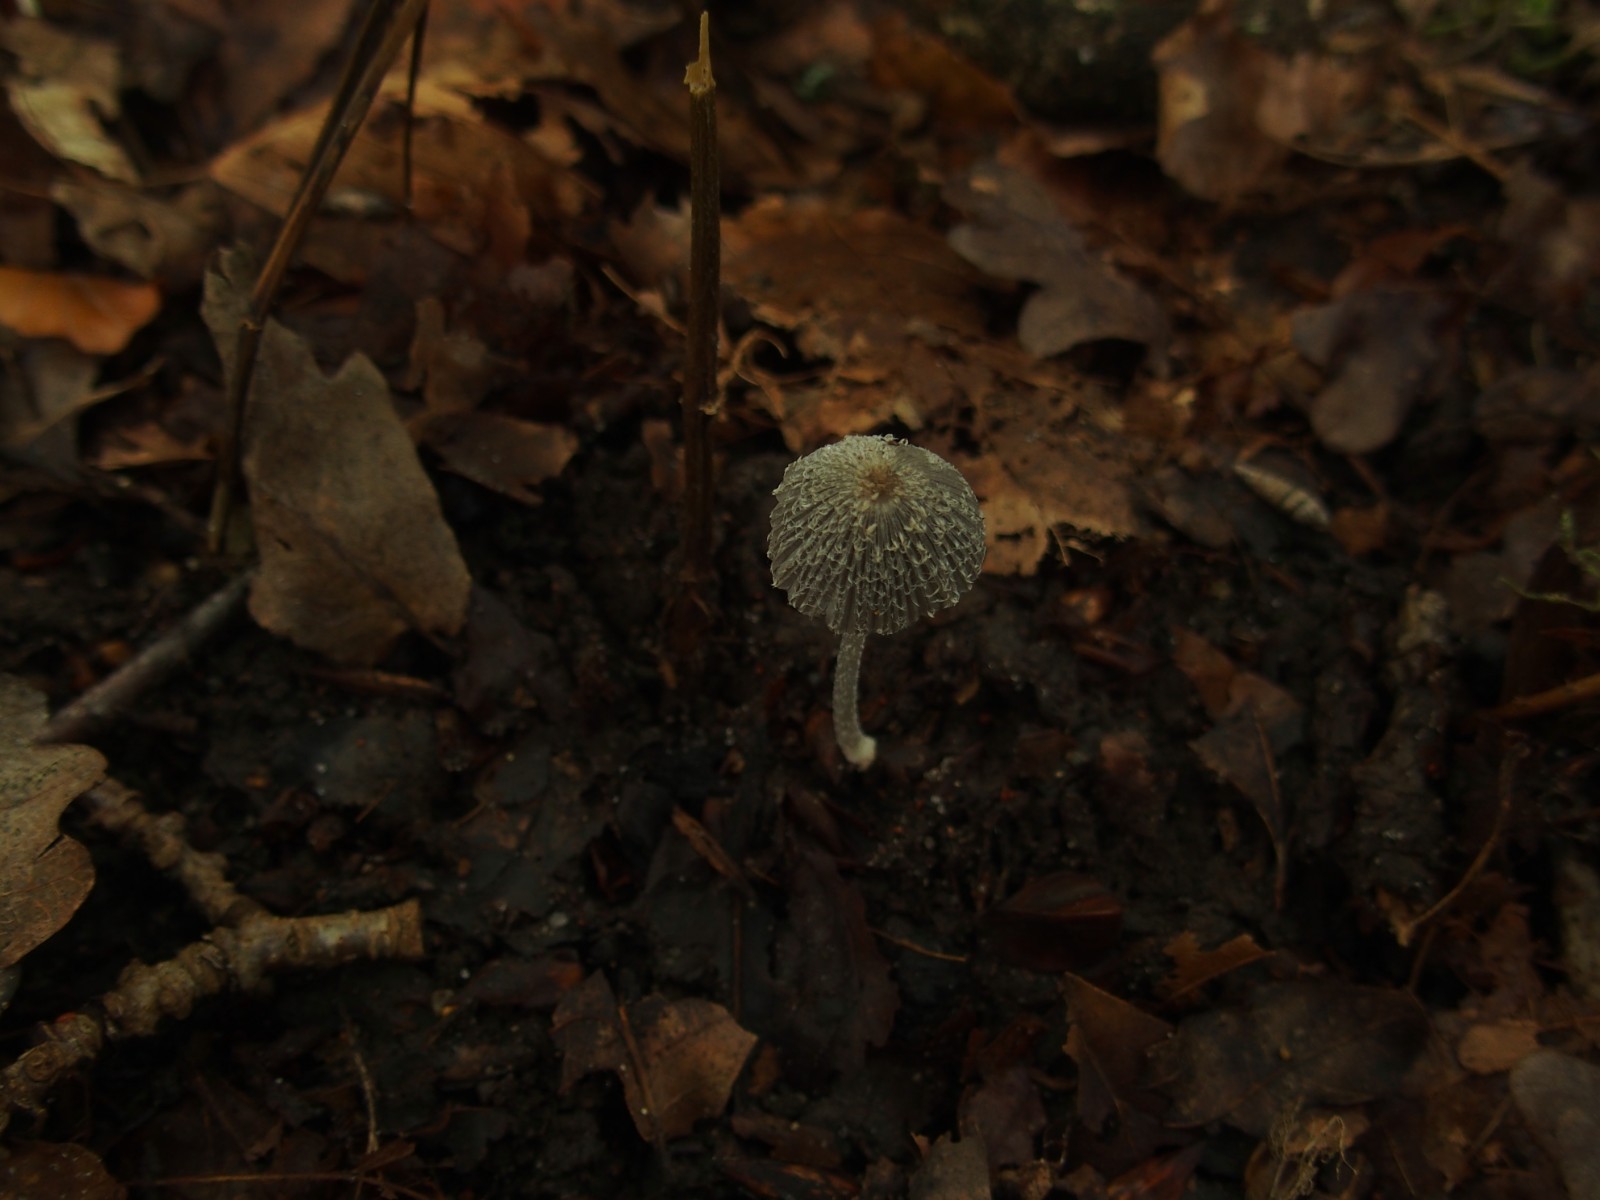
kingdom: Fungi
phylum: Basidiomycota
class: Agaricomycetes
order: Agaricales
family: Psathyrellaceae
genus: Coprinopsis
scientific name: Coprinopsis lagopus
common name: dunstokket blækhat
